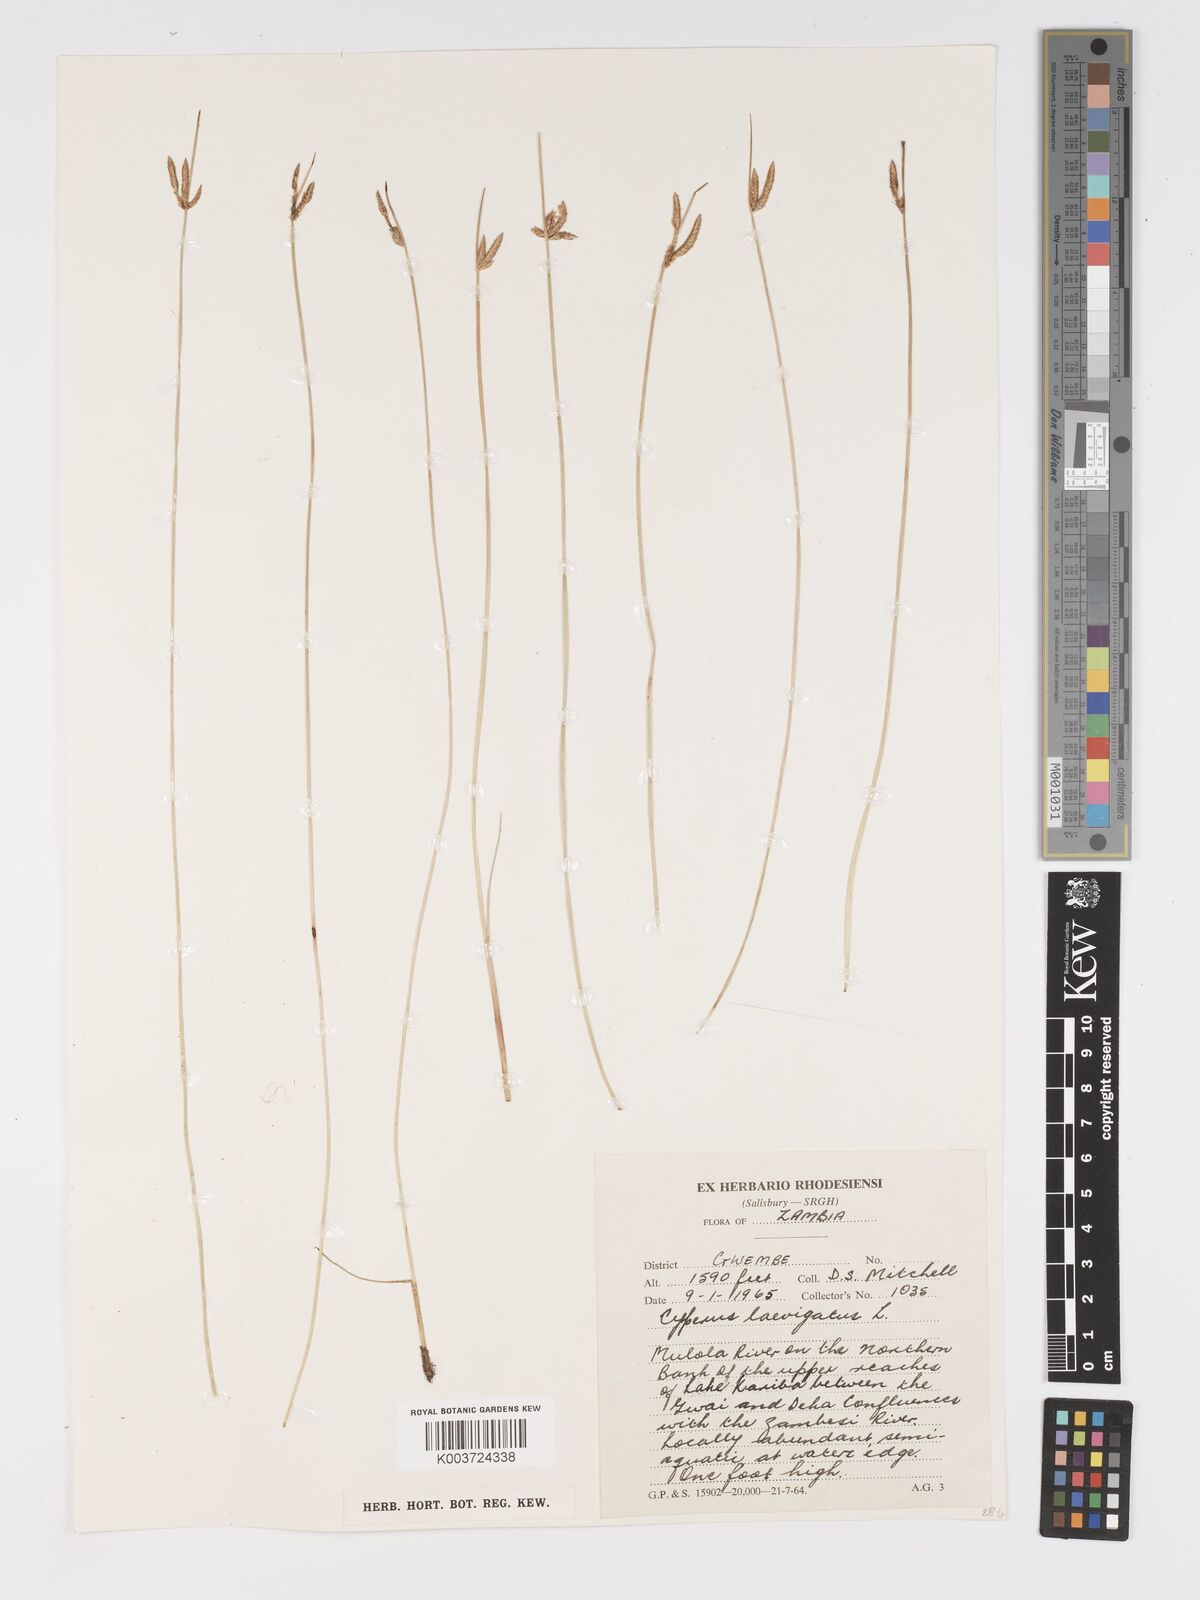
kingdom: Plantae
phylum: Tracheophyta
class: Liliopsida
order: Poales
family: Cyperaceae
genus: Cyperus
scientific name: Cyperus laevigatus
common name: Smooth flat sedge
